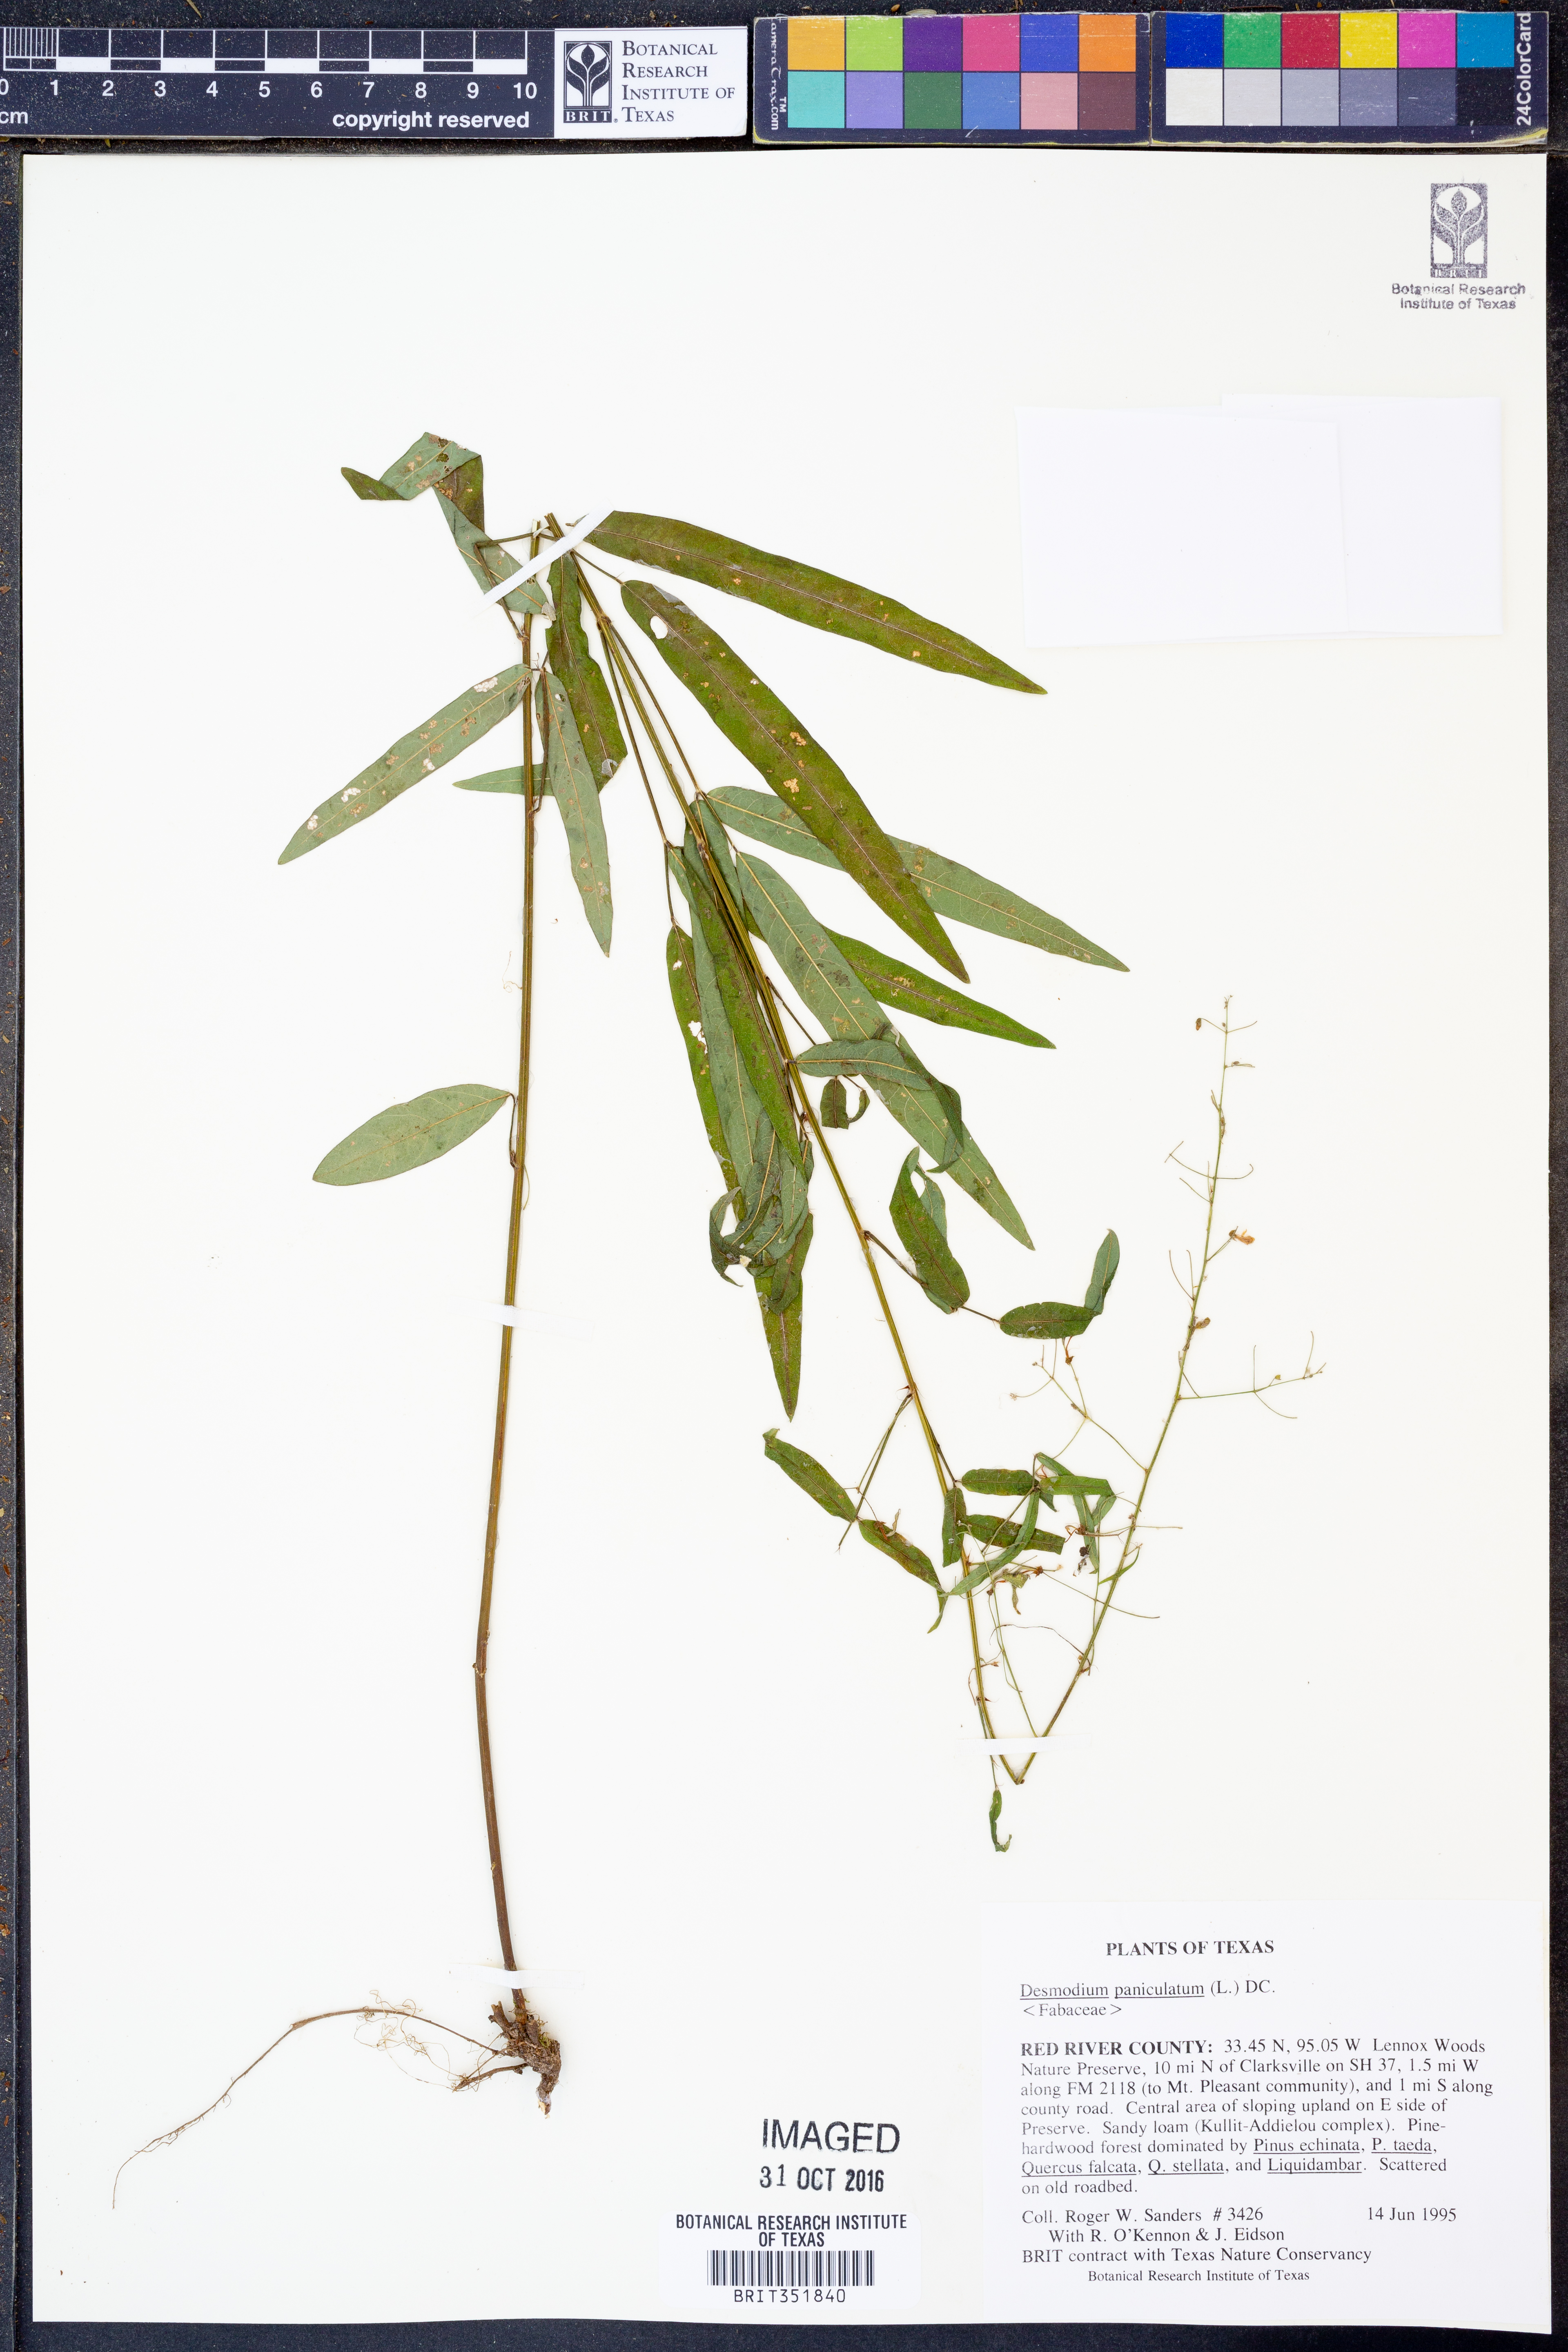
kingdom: Plantae
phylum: Tracheophyta
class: Magnoliopsida
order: Fabales
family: Fabaceae
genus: Desmodium
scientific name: Desmodium paniculatum
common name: Panicled tick-clover
